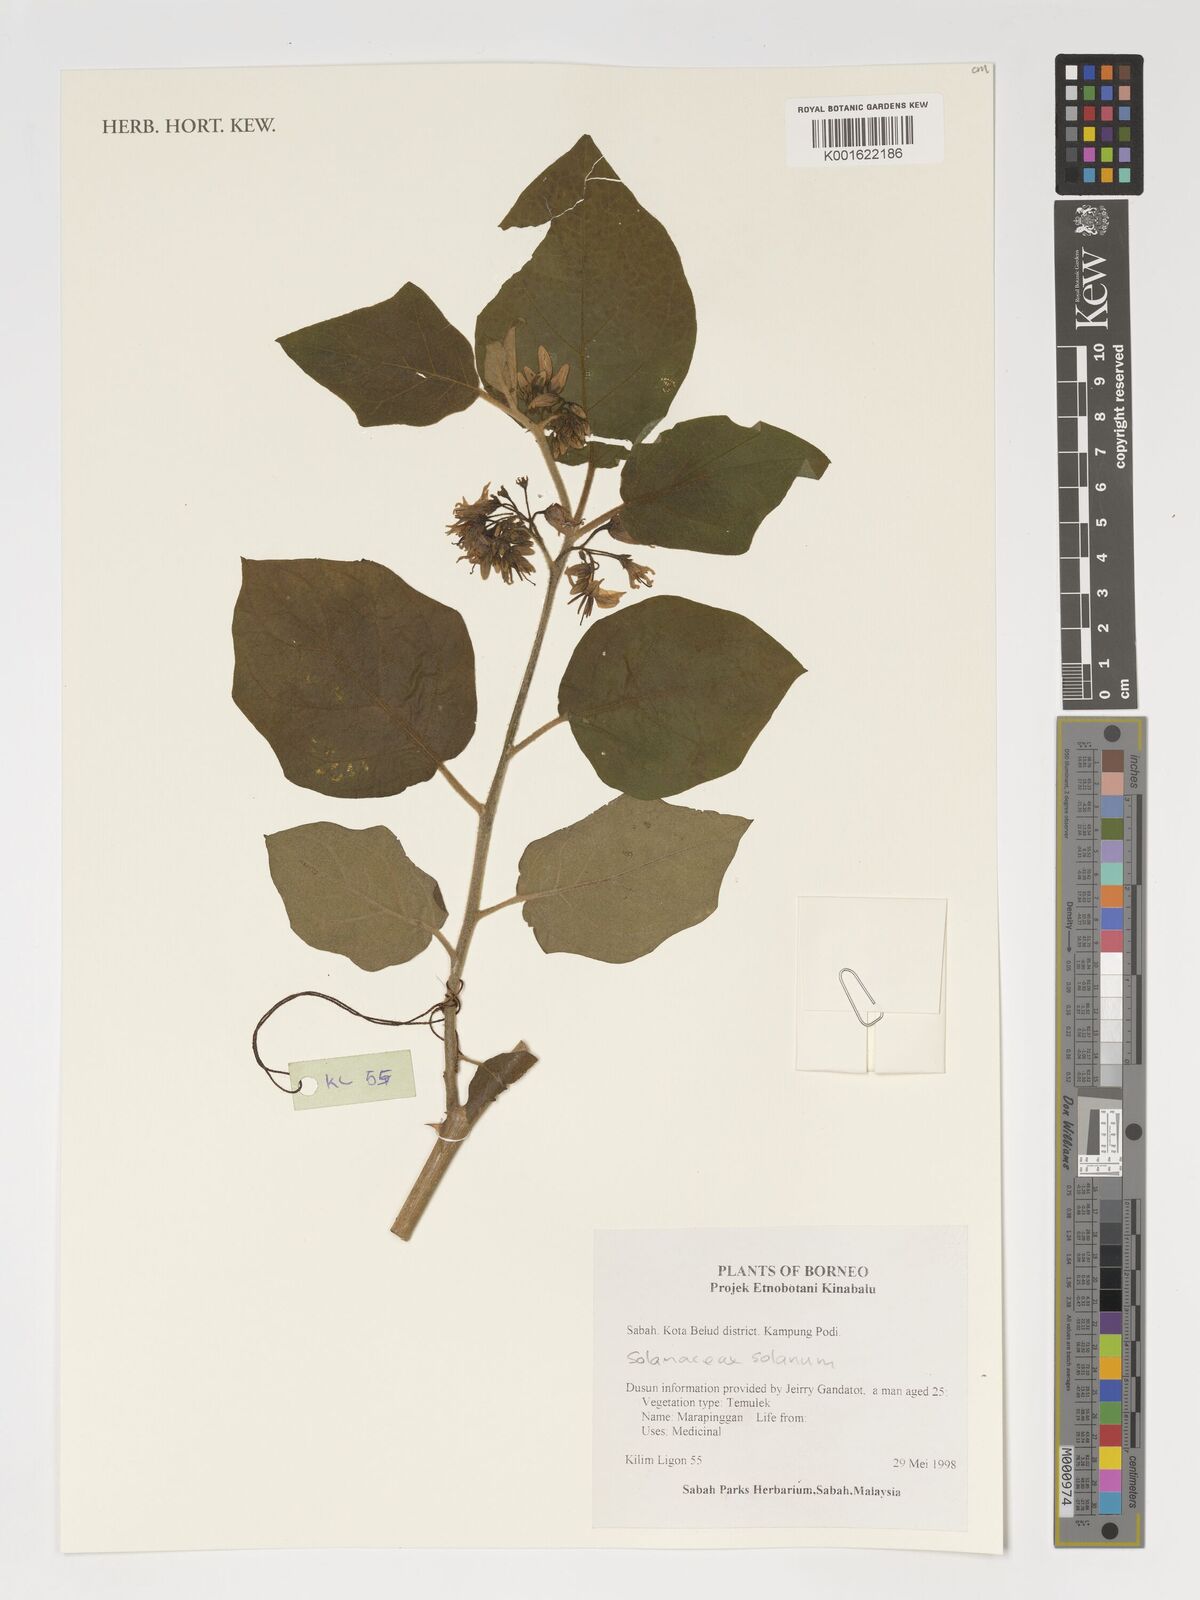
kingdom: Plantae
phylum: Tracheophyta
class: Magnoliopsida
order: Solanales
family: Solanaceae
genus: Solanum
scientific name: Solanum
